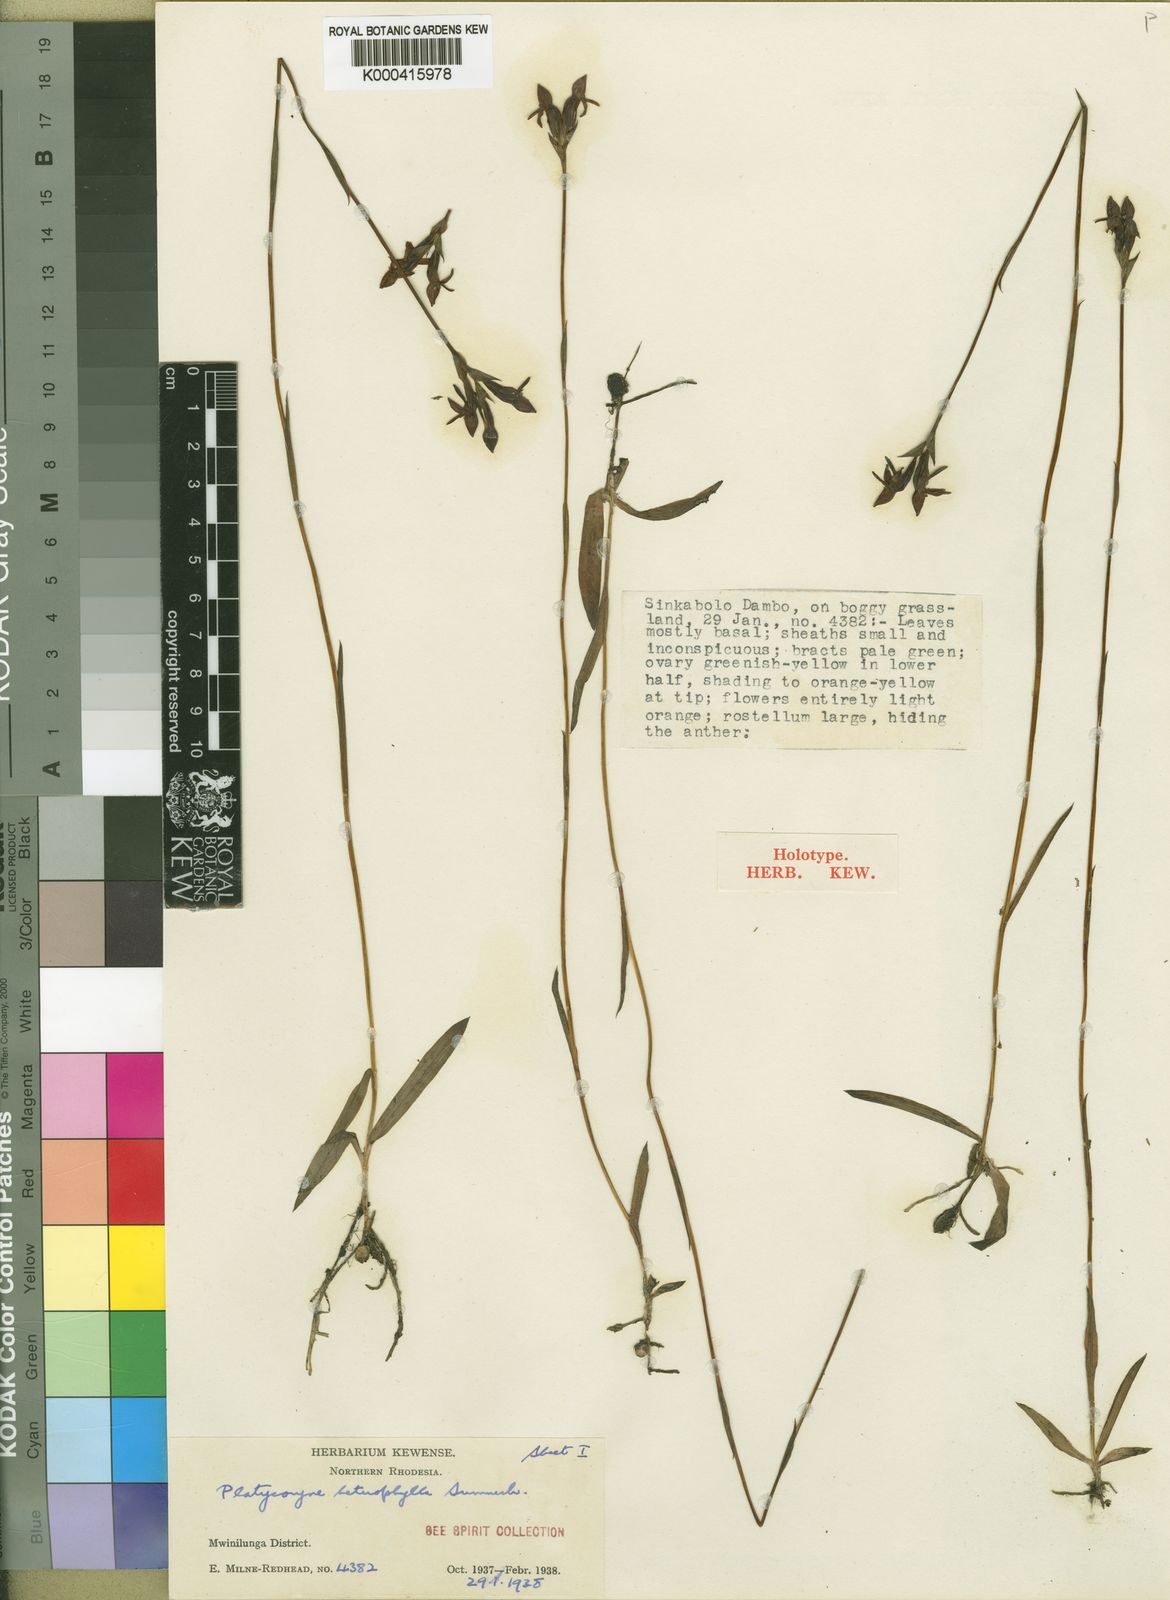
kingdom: Plantae
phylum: Tracheophyta
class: Liliopsida
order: Asparagales
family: Orchidaceae
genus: Platycoryne
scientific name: Platycoryne crocea
